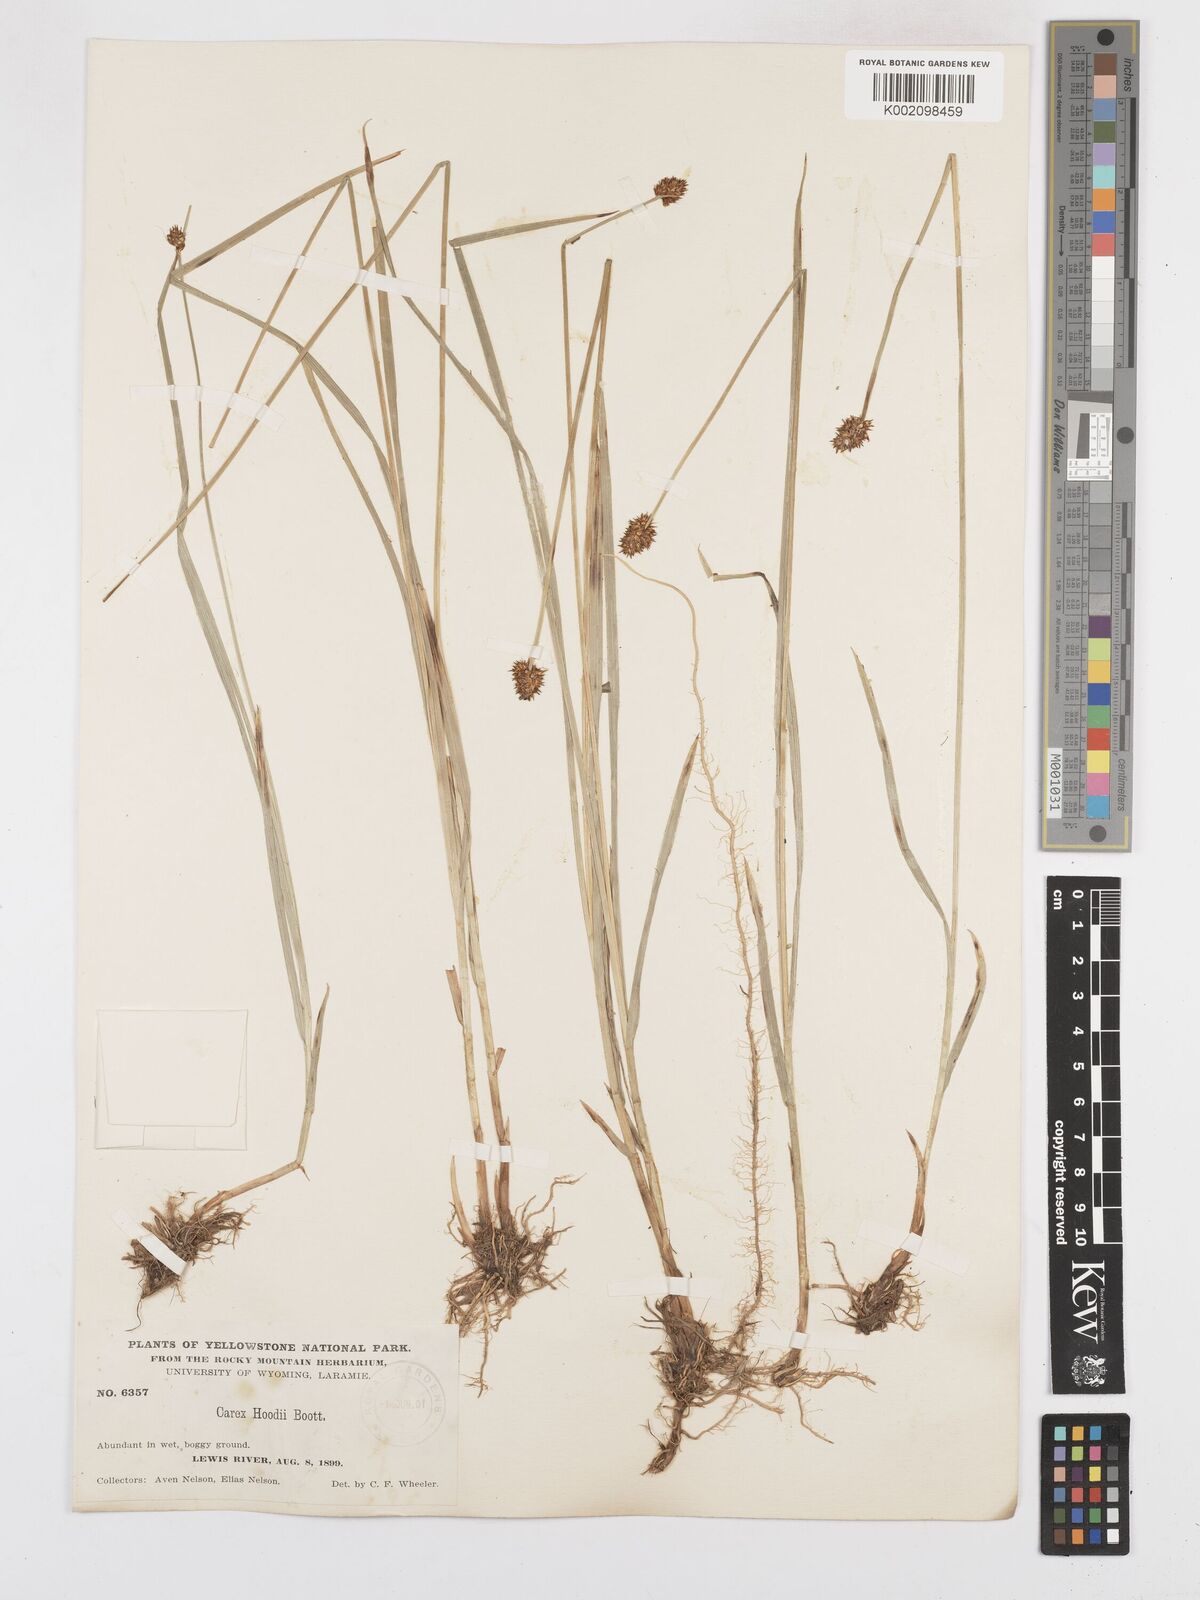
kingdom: Plantae
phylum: Tracheophyta
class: Liliopsida
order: Poales
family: Cyperaceae
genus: Carex
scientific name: Carex hoodii
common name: Hood's sedge
